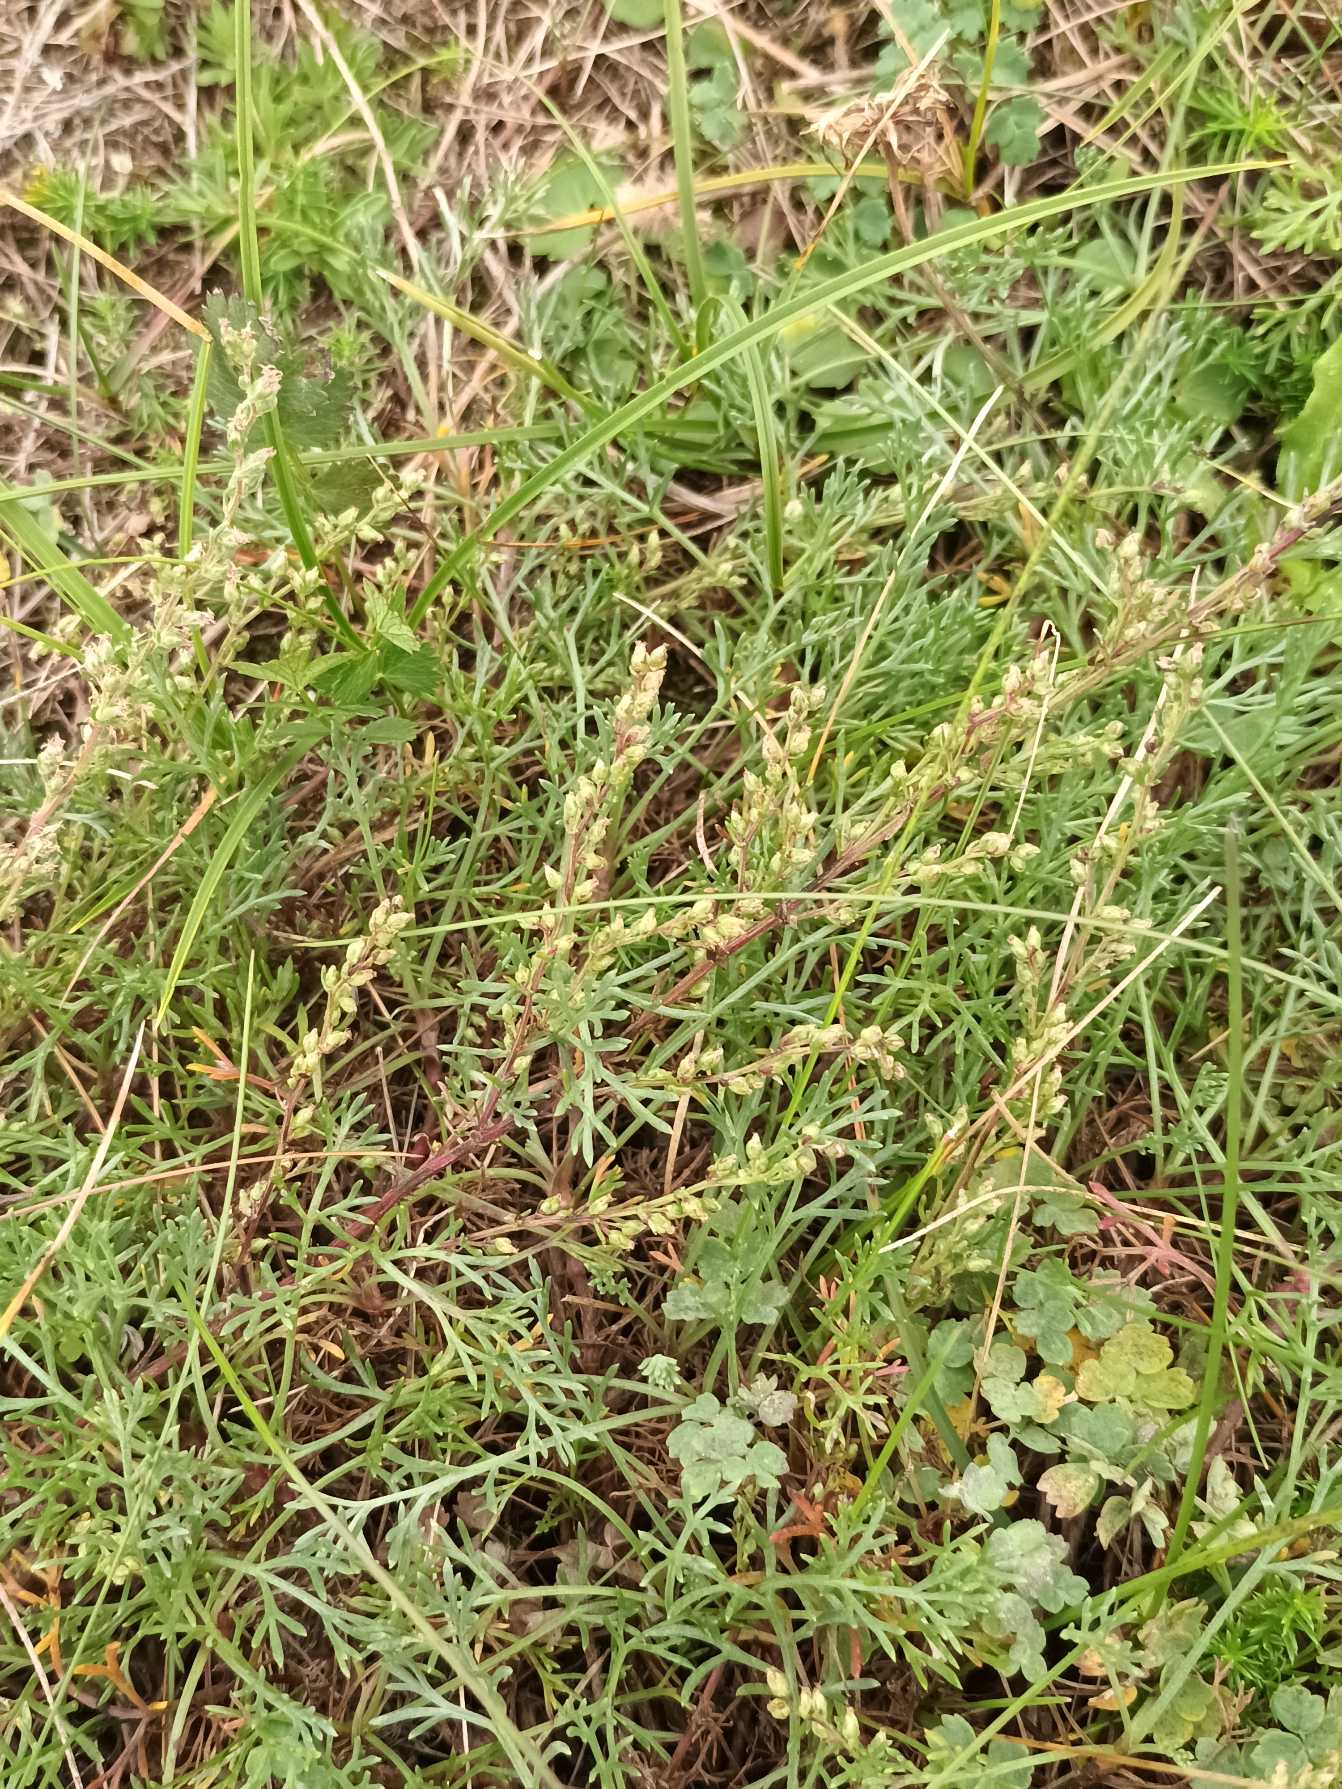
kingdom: Plantae
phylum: Tracheophyta
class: Magnoliopsida
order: Asterales
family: Asteraceae
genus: Artemisia
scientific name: Artemisia campestris
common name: Mark-bynke
